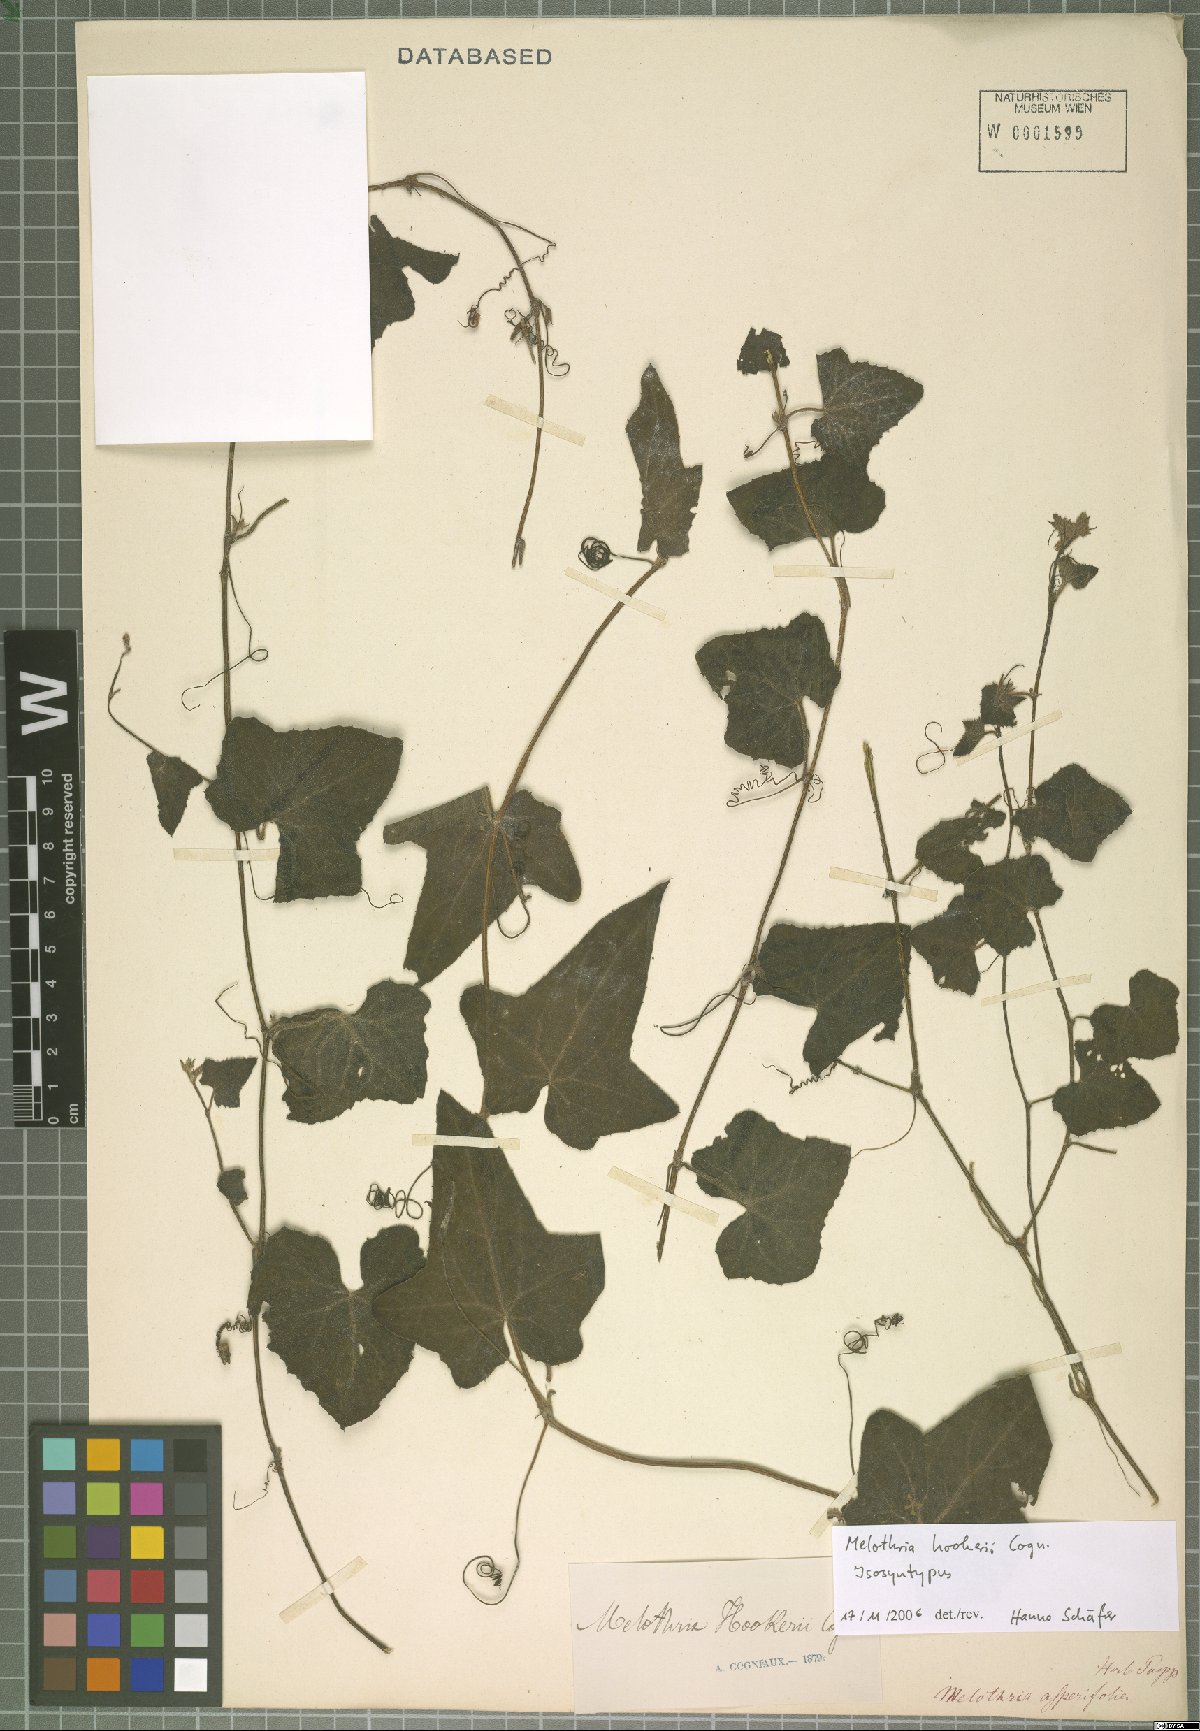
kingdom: Plantae
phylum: Tracheophyta
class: Magnoliopsida
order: Cucurbitales
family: Cucurbitaceae
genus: Melothria
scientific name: Melothria warmingii
